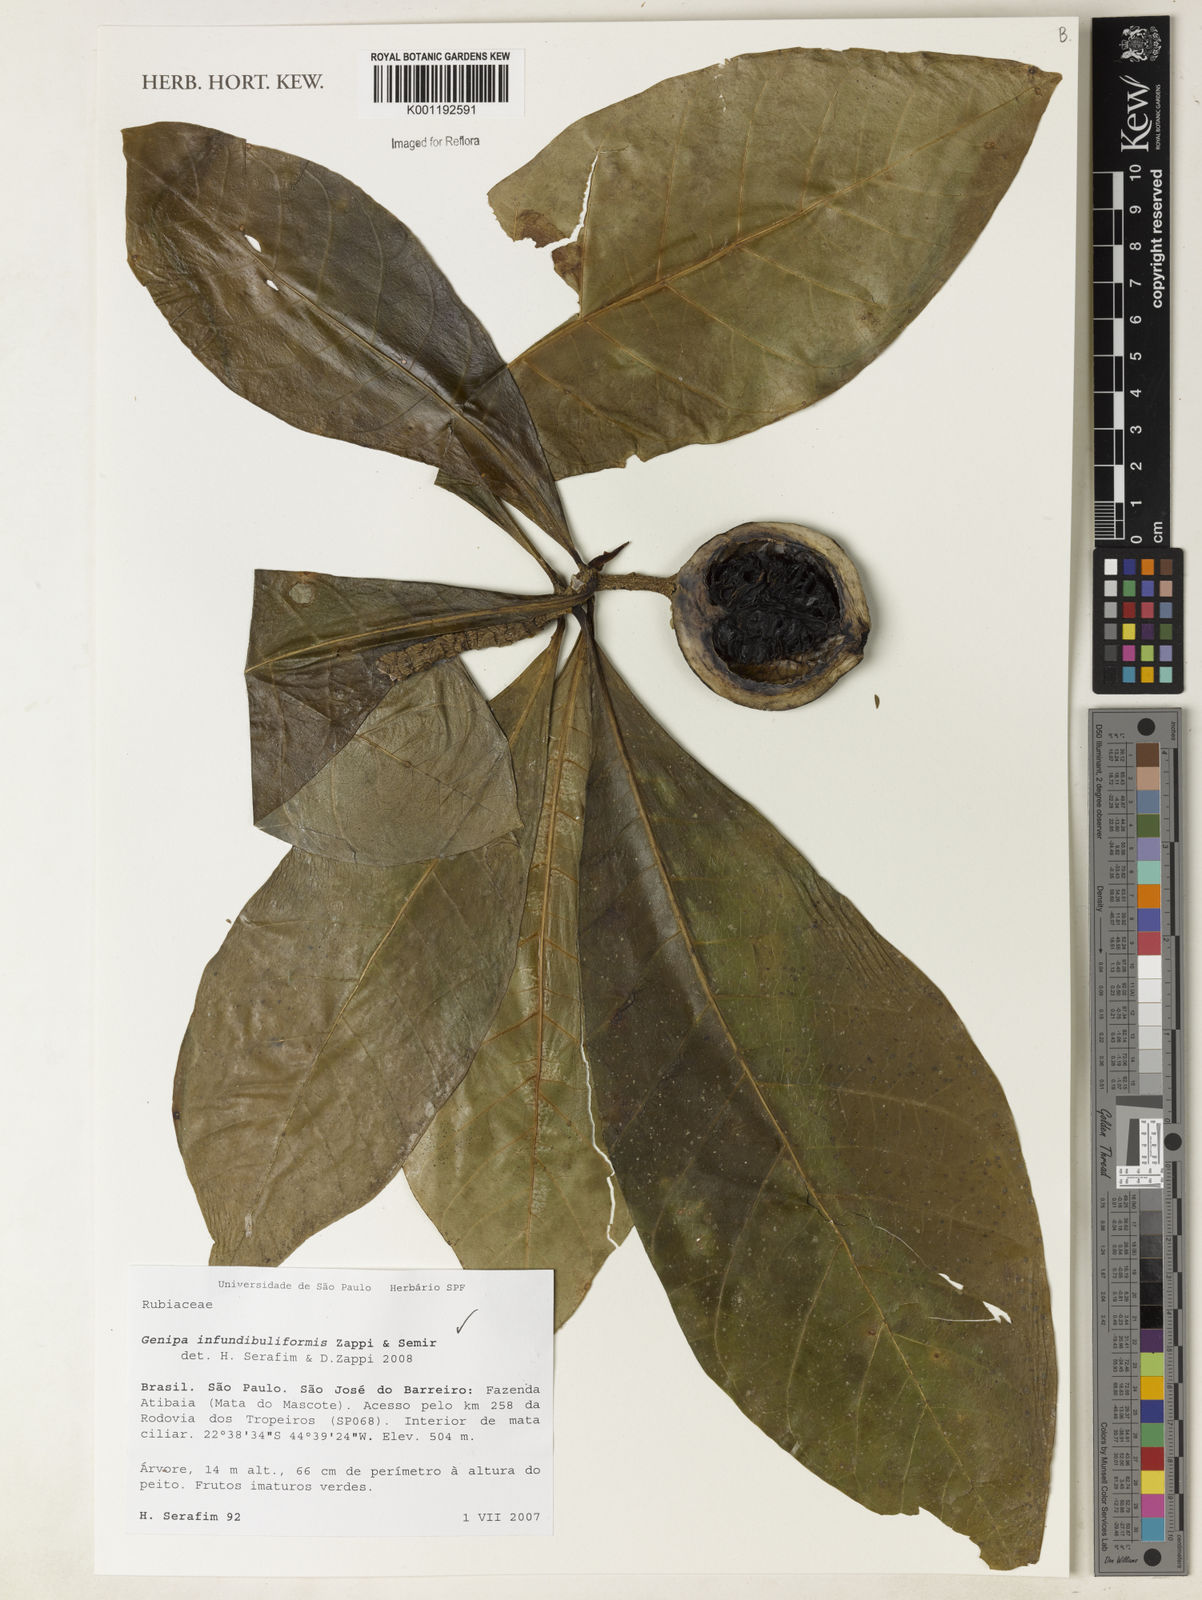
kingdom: Plantae
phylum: Tracheophyta
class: Magnoliopsida
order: Gentianales
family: Rubiaceae
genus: Genipa
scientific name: Genipa infundibuliformis
